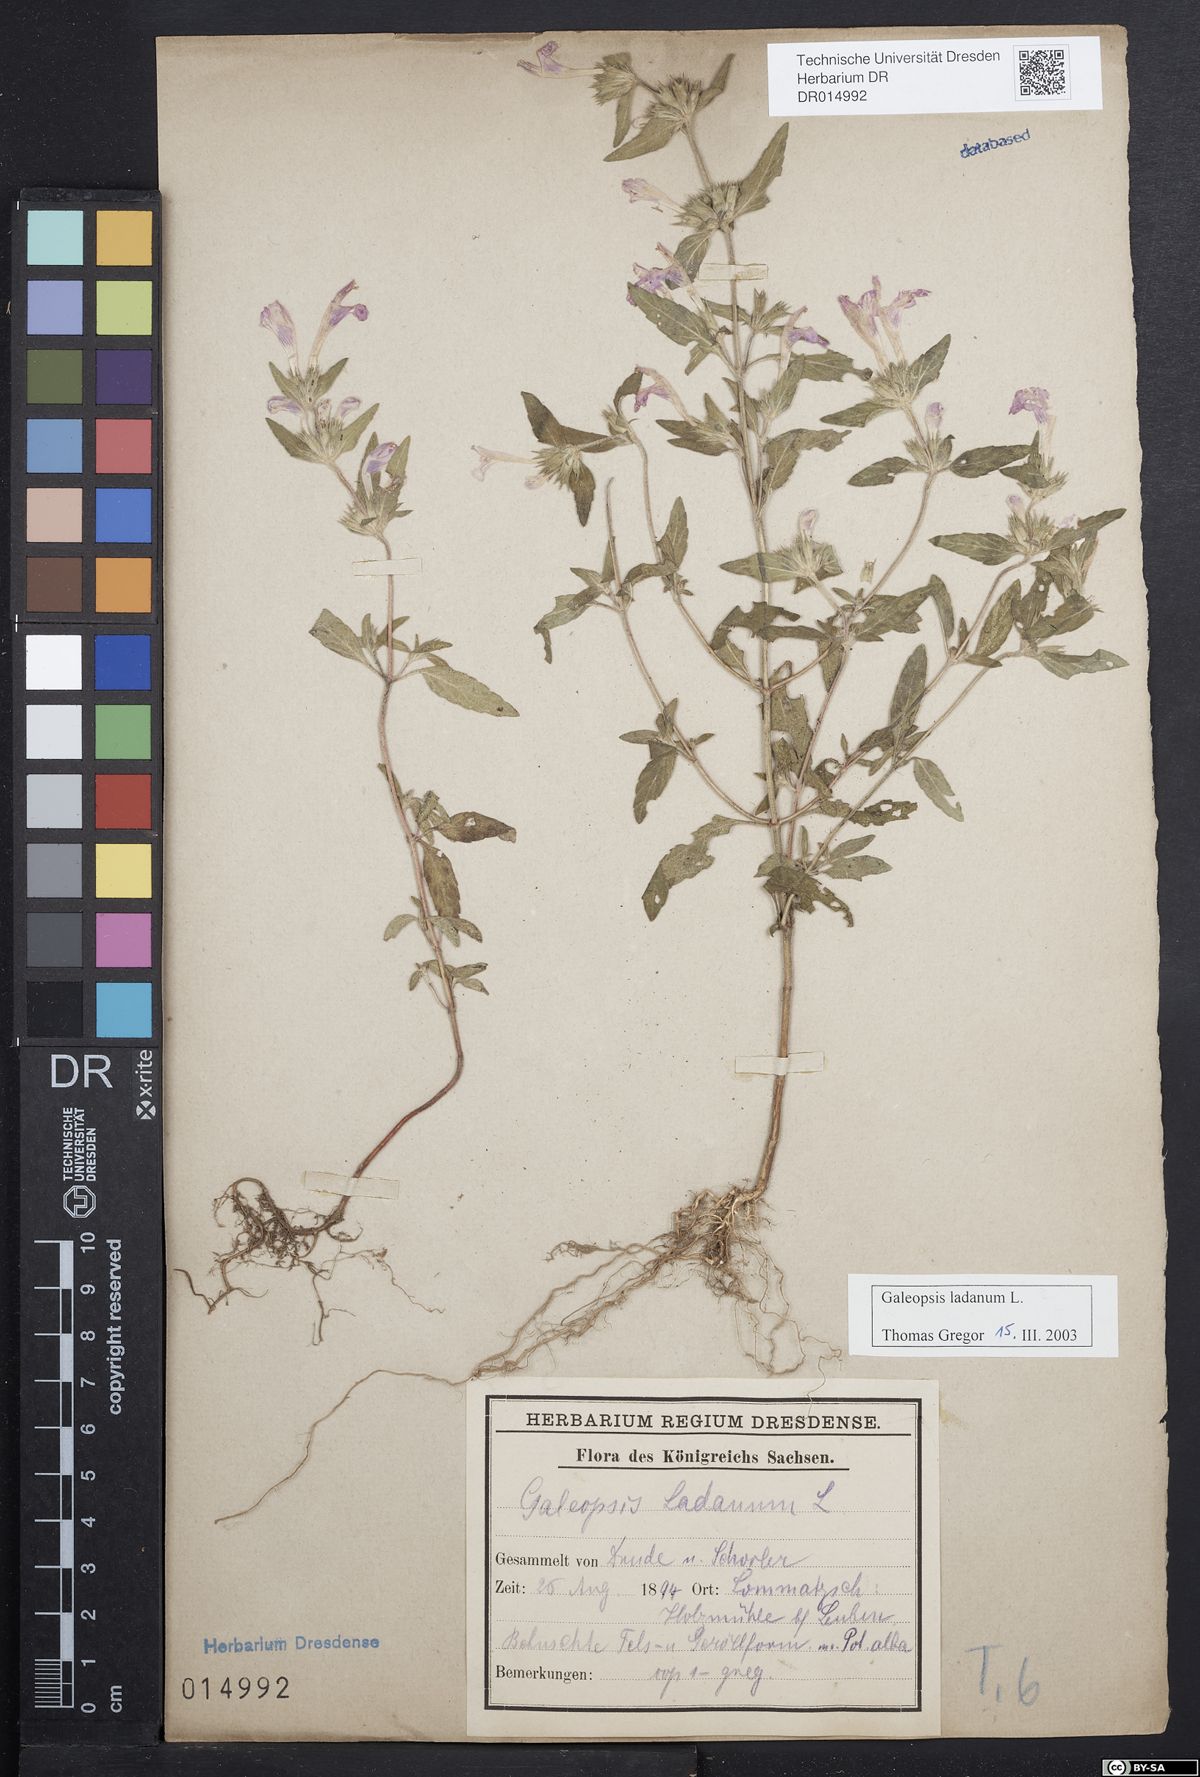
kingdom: Plantae
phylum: Tracheophyta
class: Magnoliopsida
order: Lamiales
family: Lamiaceae
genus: Galeopsis
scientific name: Galeopsis ladanum
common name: Broad-leaved hemp-nettle
